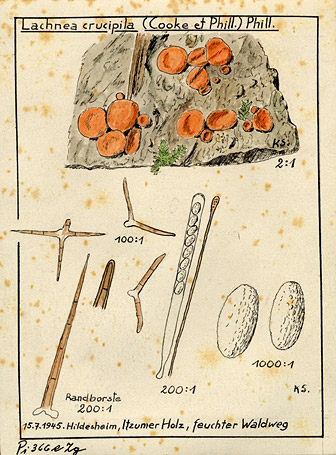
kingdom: Fungi
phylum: Ascomycota
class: Pezizomycetes
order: Pezizales
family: Pyronemataceae
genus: Cheilymenia
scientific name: Cheilymenia crucipila
